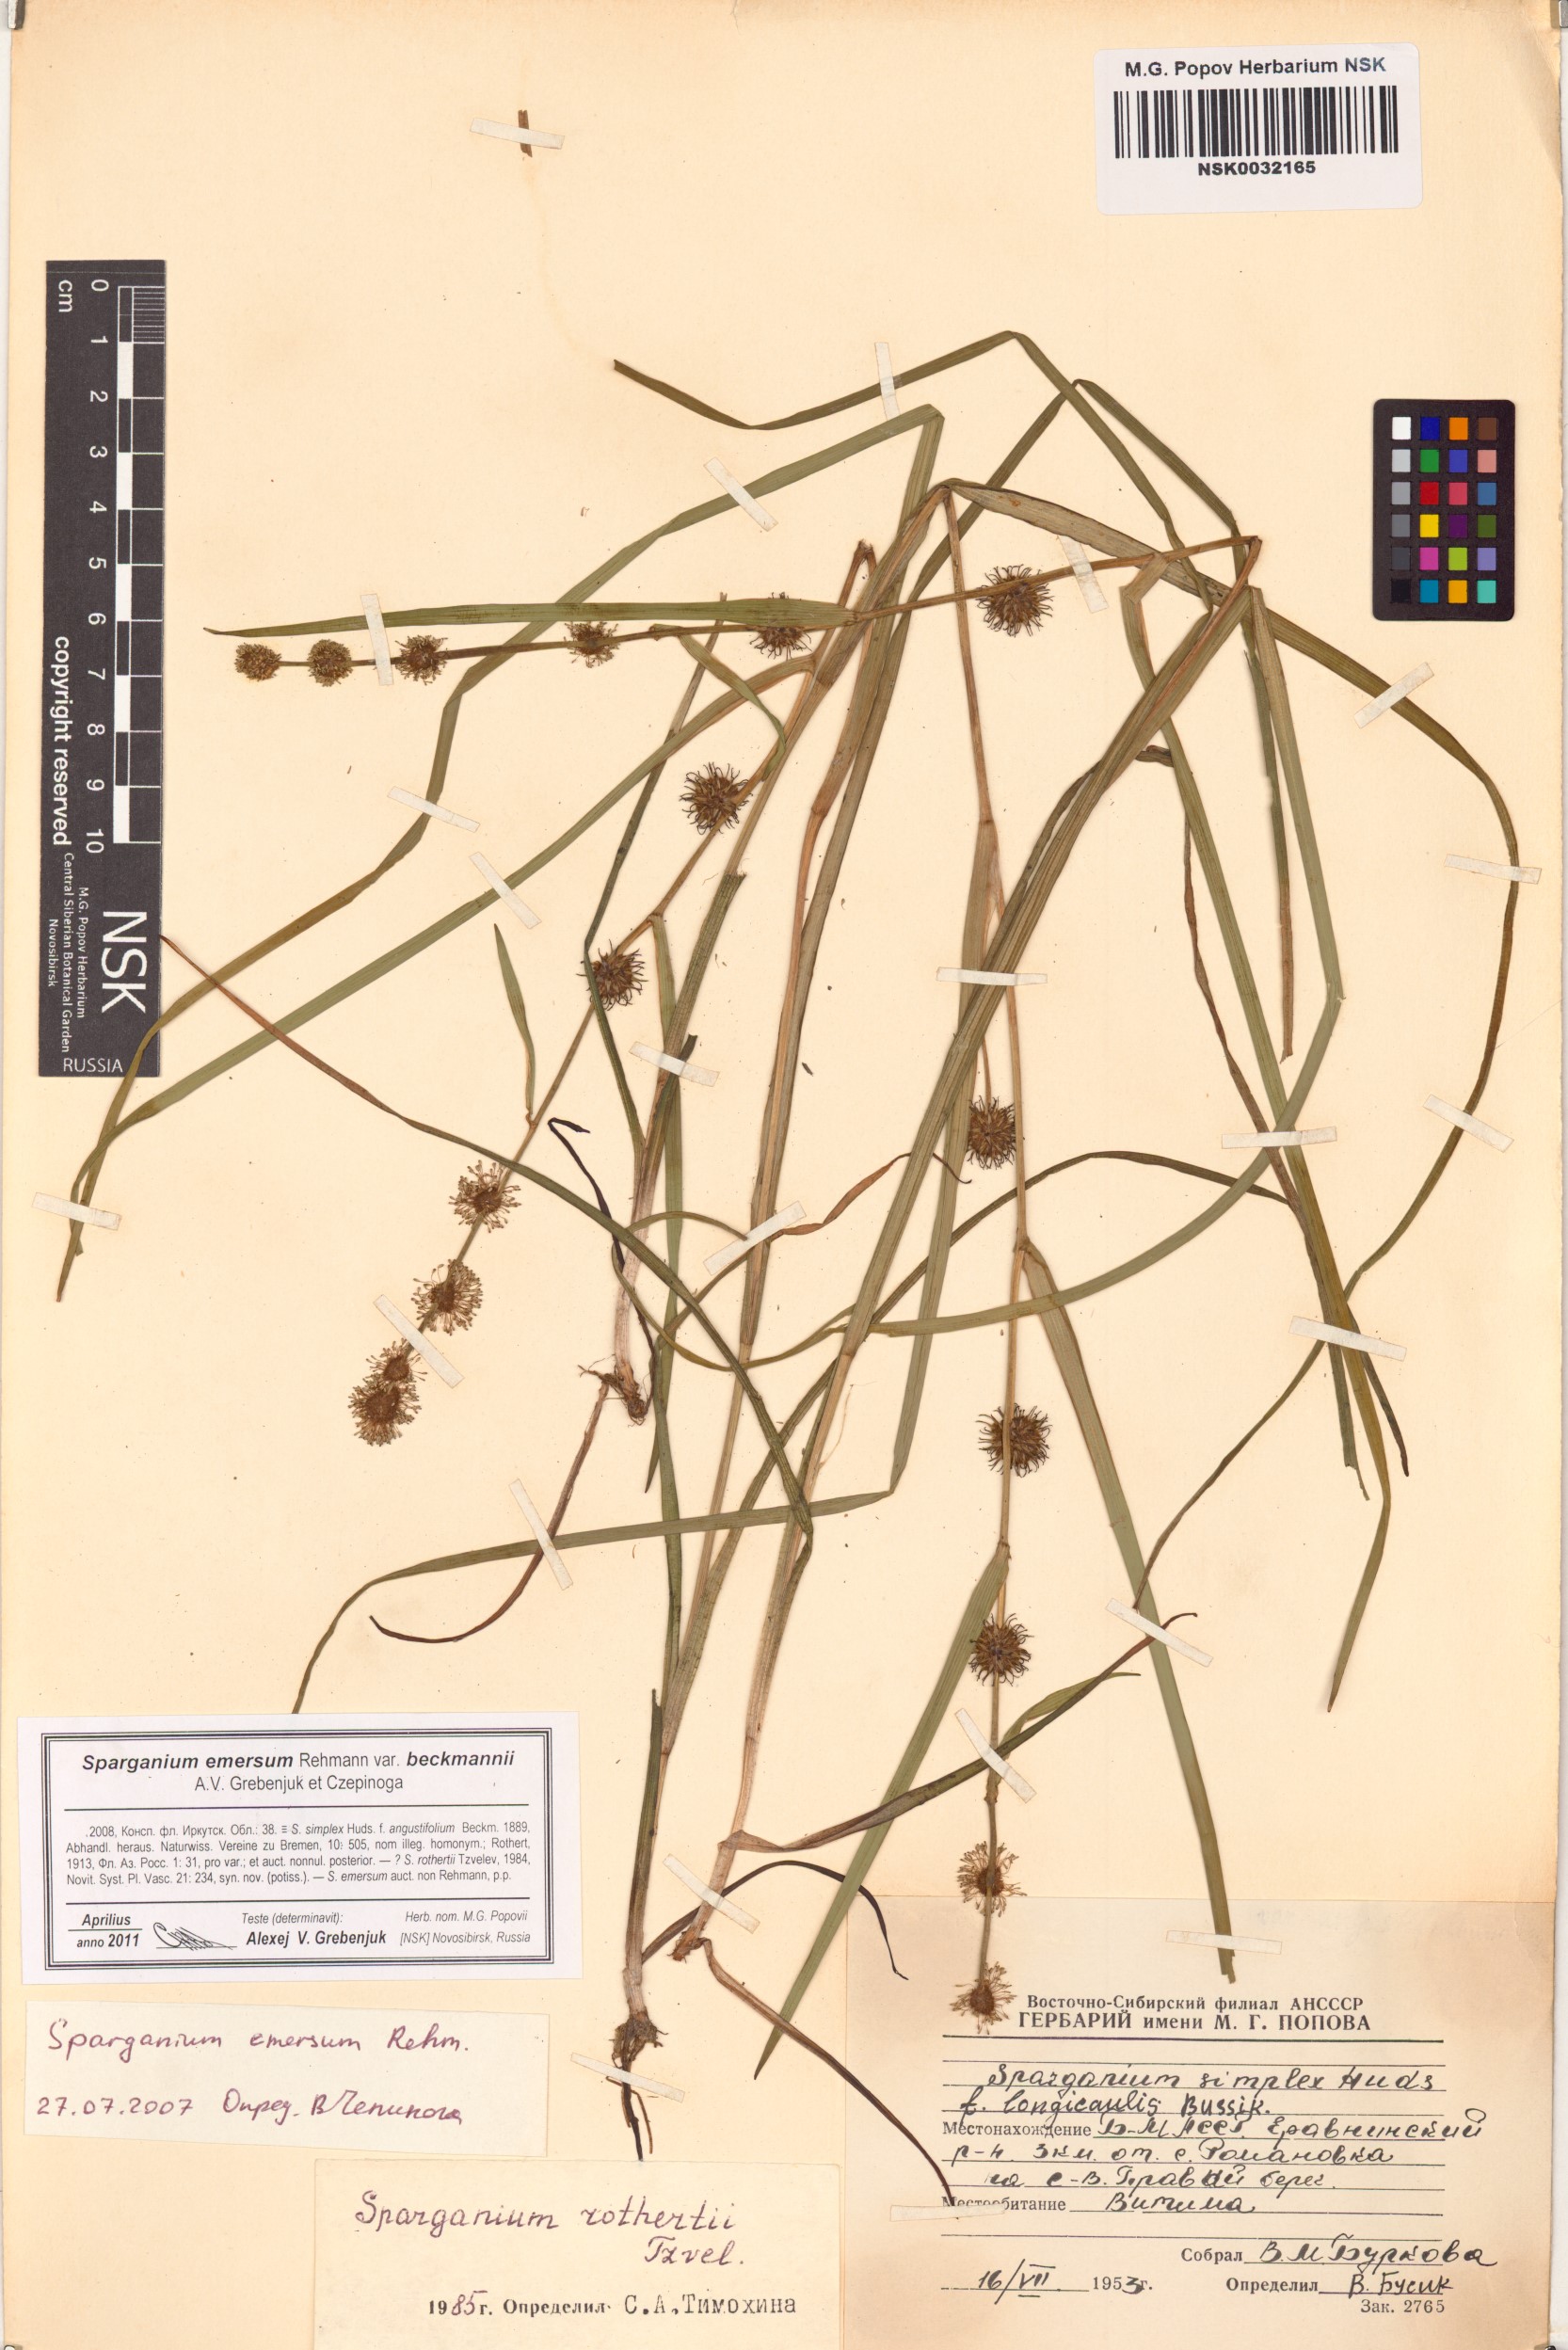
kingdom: Plantae
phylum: Tracheophyta
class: Liliopsida
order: Poales
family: Typhaceae
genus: Sparganium
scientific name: Sparganium emersum
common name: Unbranched bur-reed
